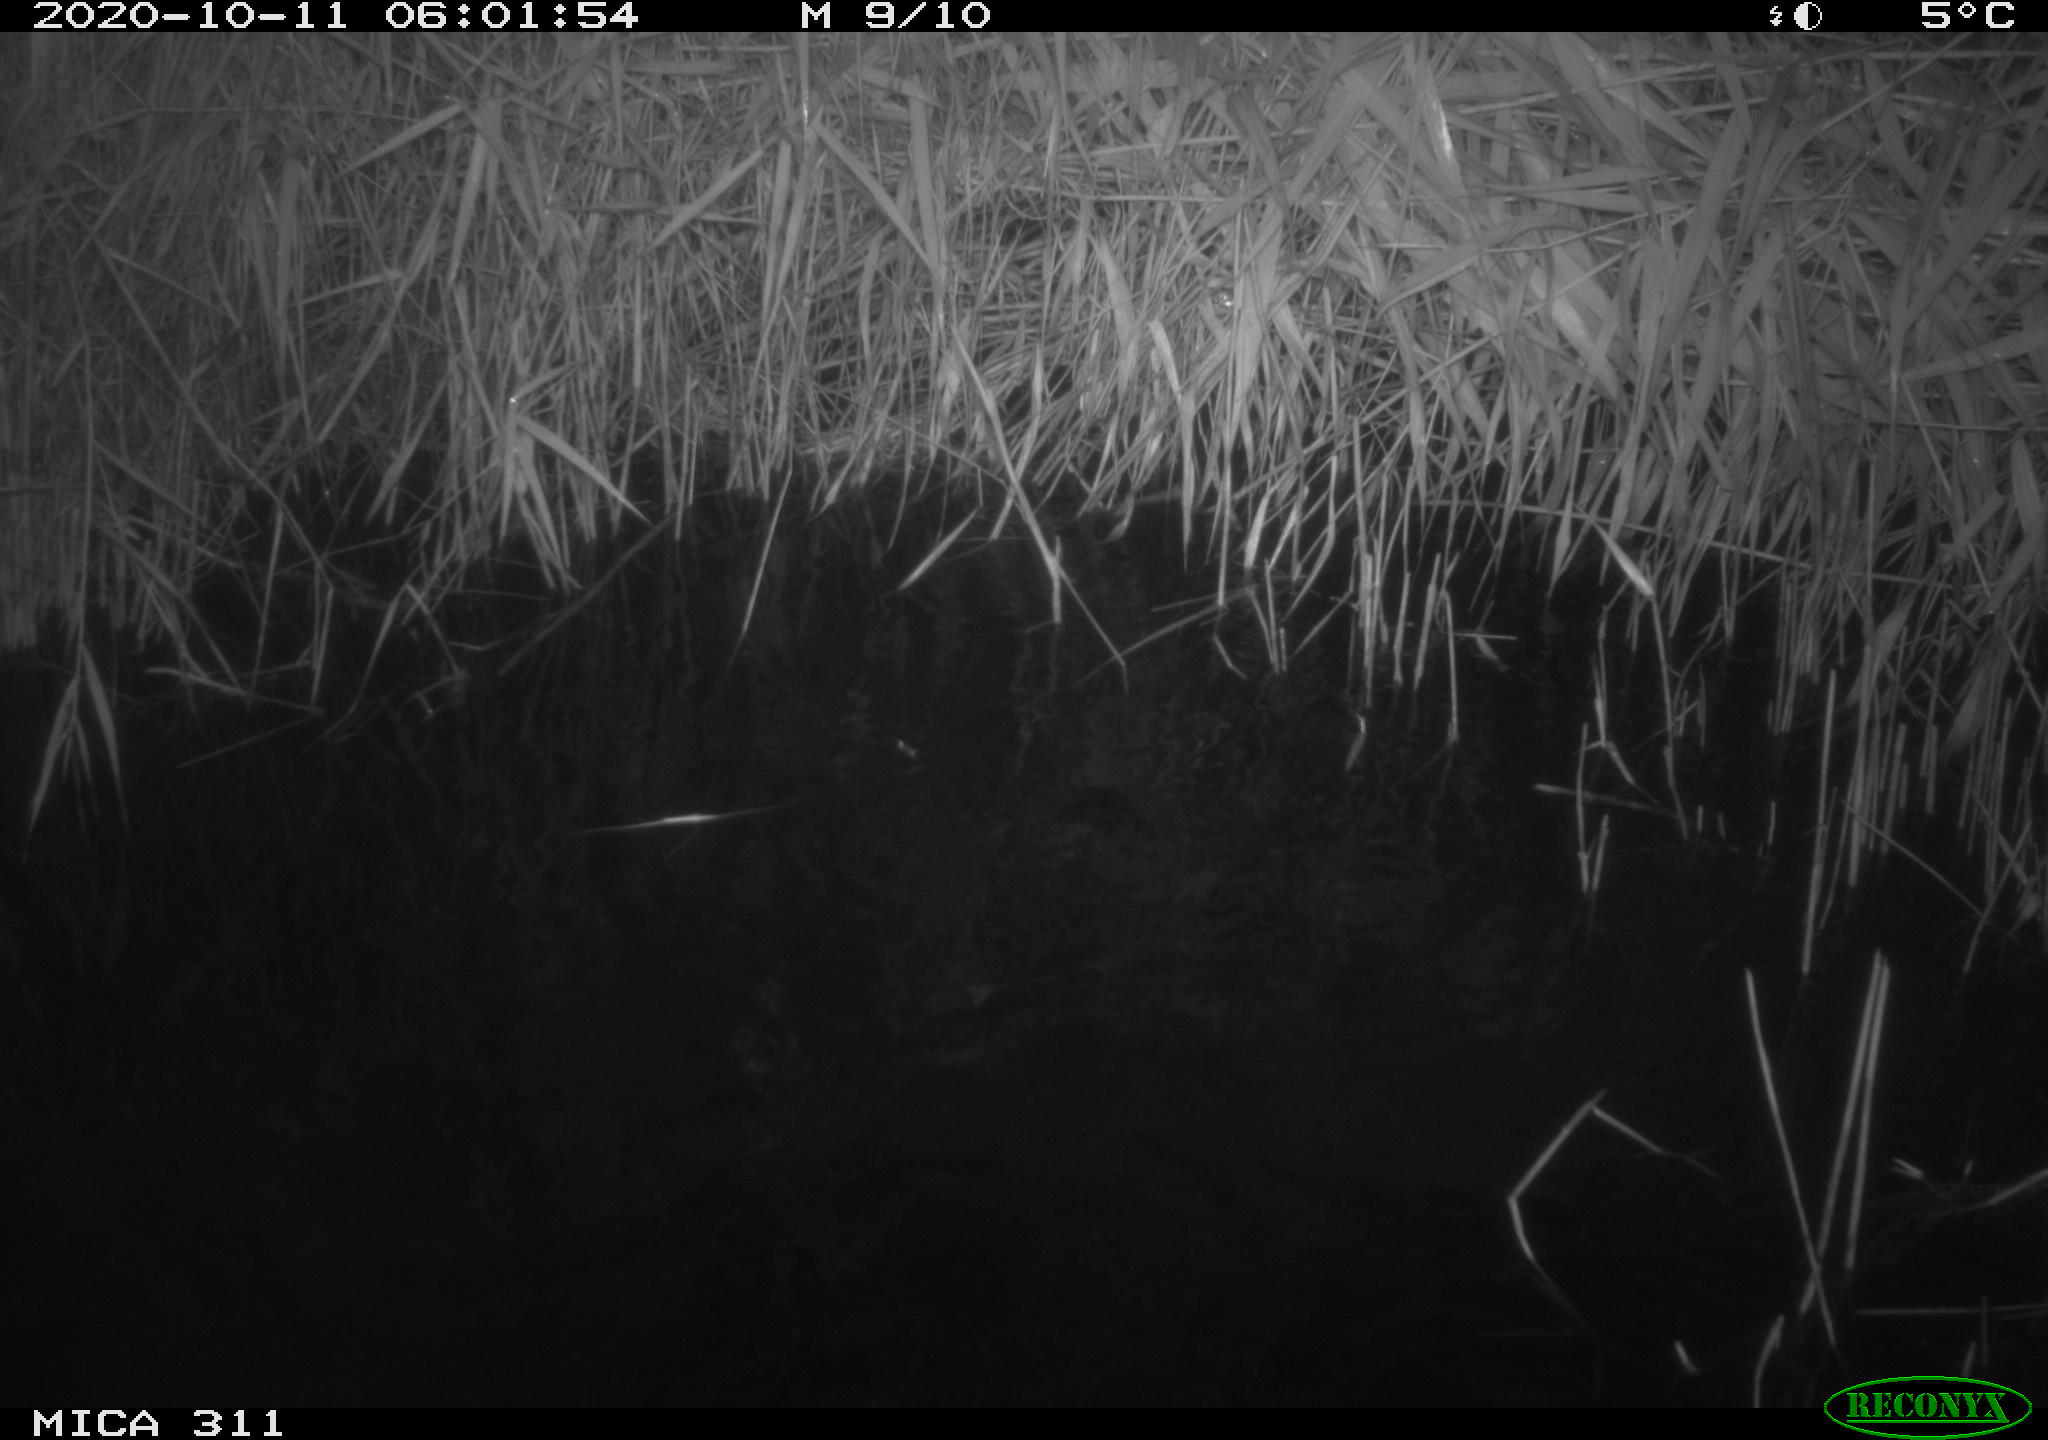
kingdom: Animalia
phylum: Chordata
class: Mammalia
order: Rodentia
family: Muridae
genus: Rattus
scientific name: Rattus norvegicus
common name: Brown rat
